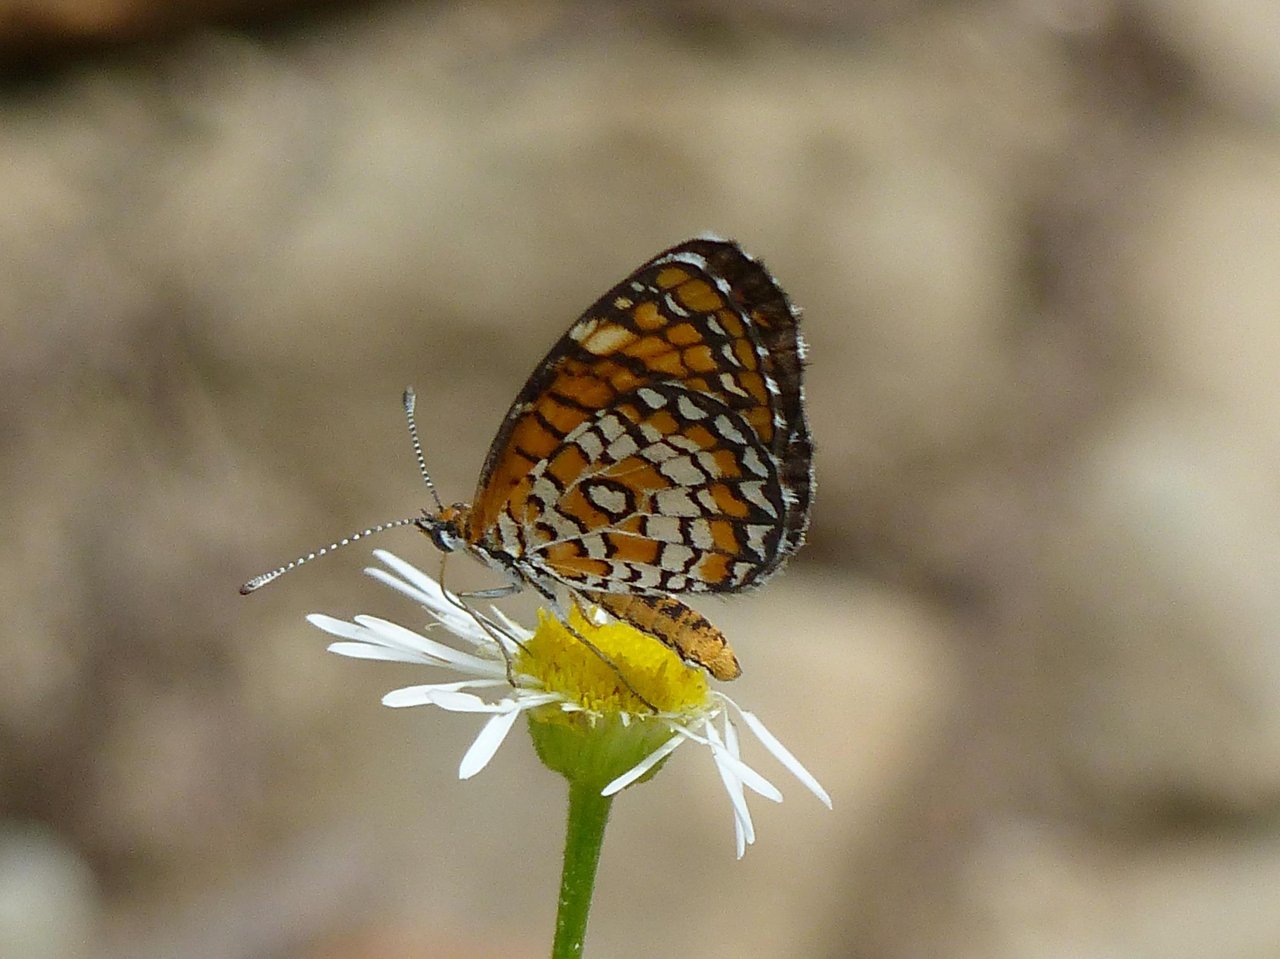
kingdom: Animalia
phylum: Arthropoda
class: Insecta
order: Lepidoptera
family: Nymphalidae
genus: Dymasia
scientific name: Dymasia dymas
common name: Tiny Checkerspot
